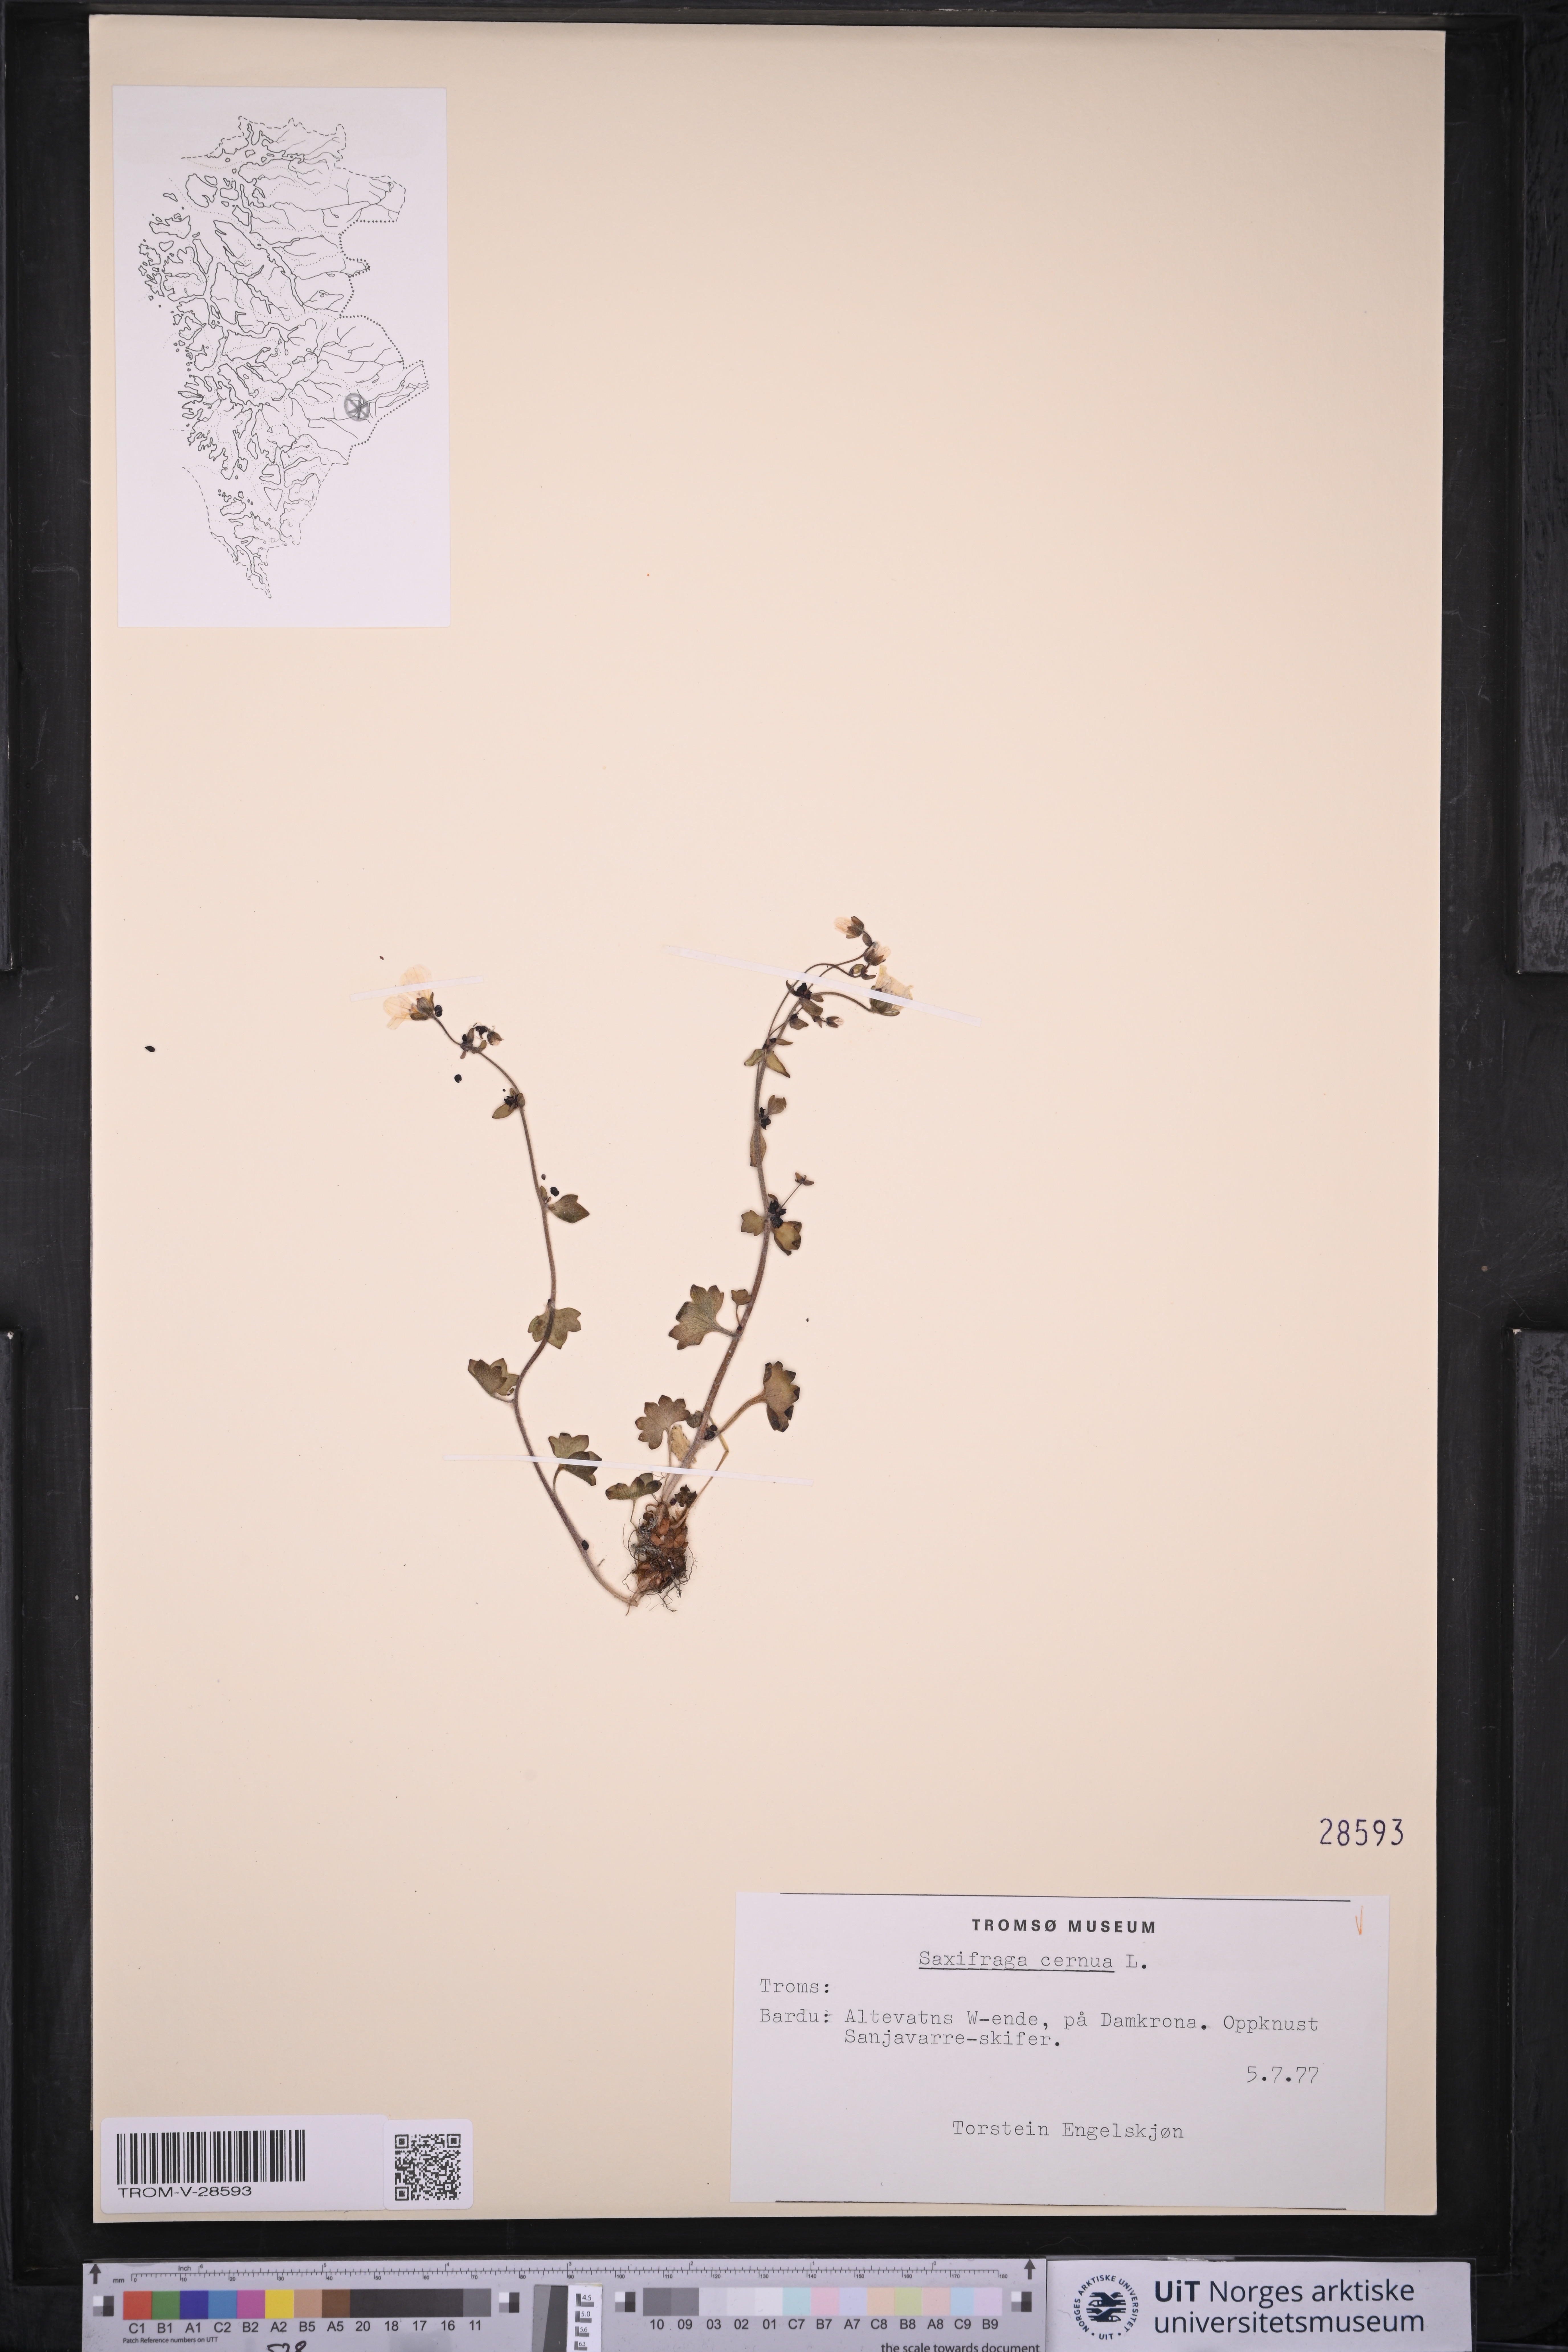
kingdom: Plantae
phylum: Tracheophyta
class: Magnoliopsida
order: Saxifragales
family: Saxifragaceae
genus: Saxifraga
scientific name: Saxifraga cernua
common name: Drooping saxifrage
